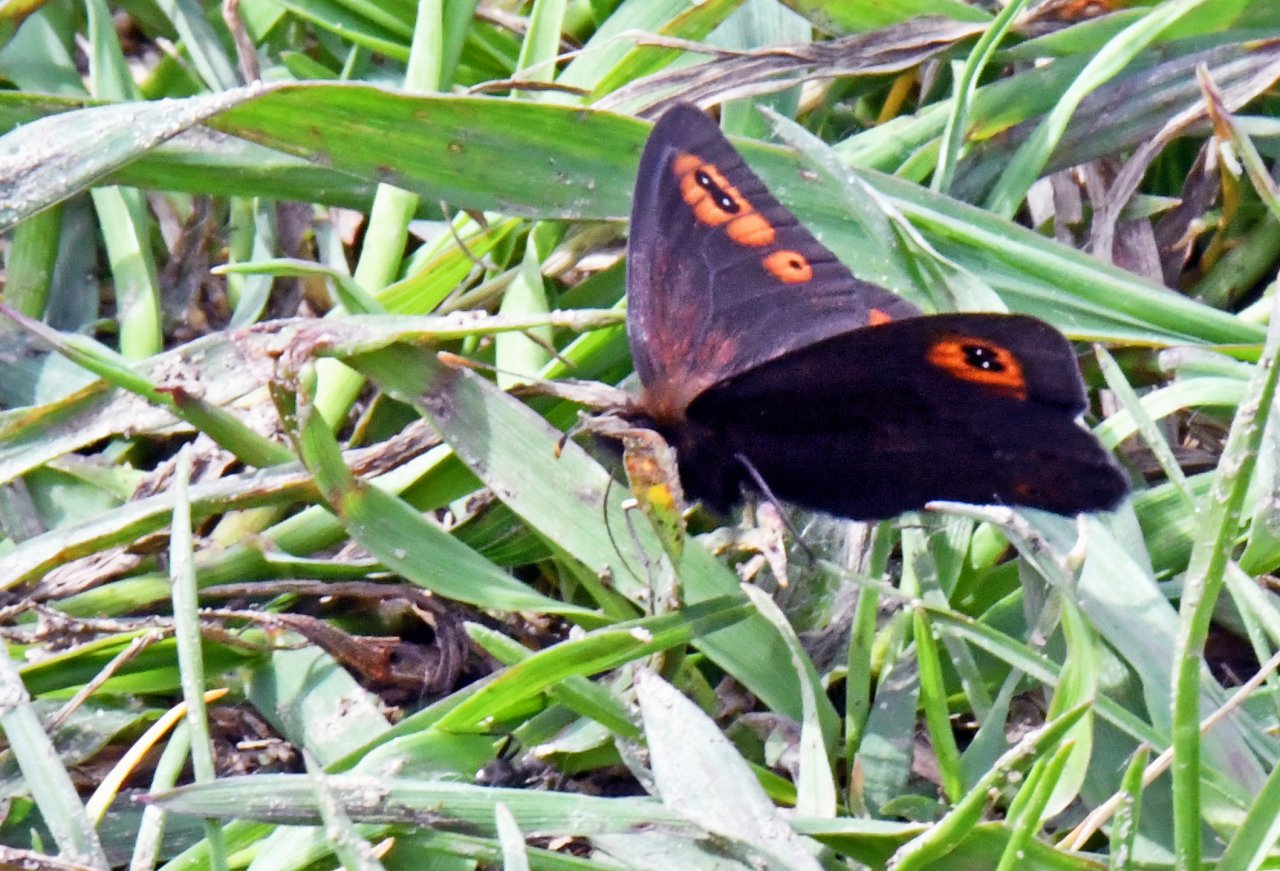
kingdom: Animalia
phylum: Arthropoda
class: Insecta
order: Lepidoptera
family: Nymphalidae
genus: Erebia
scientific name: Erebia epipsodea
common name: Common Alpine
